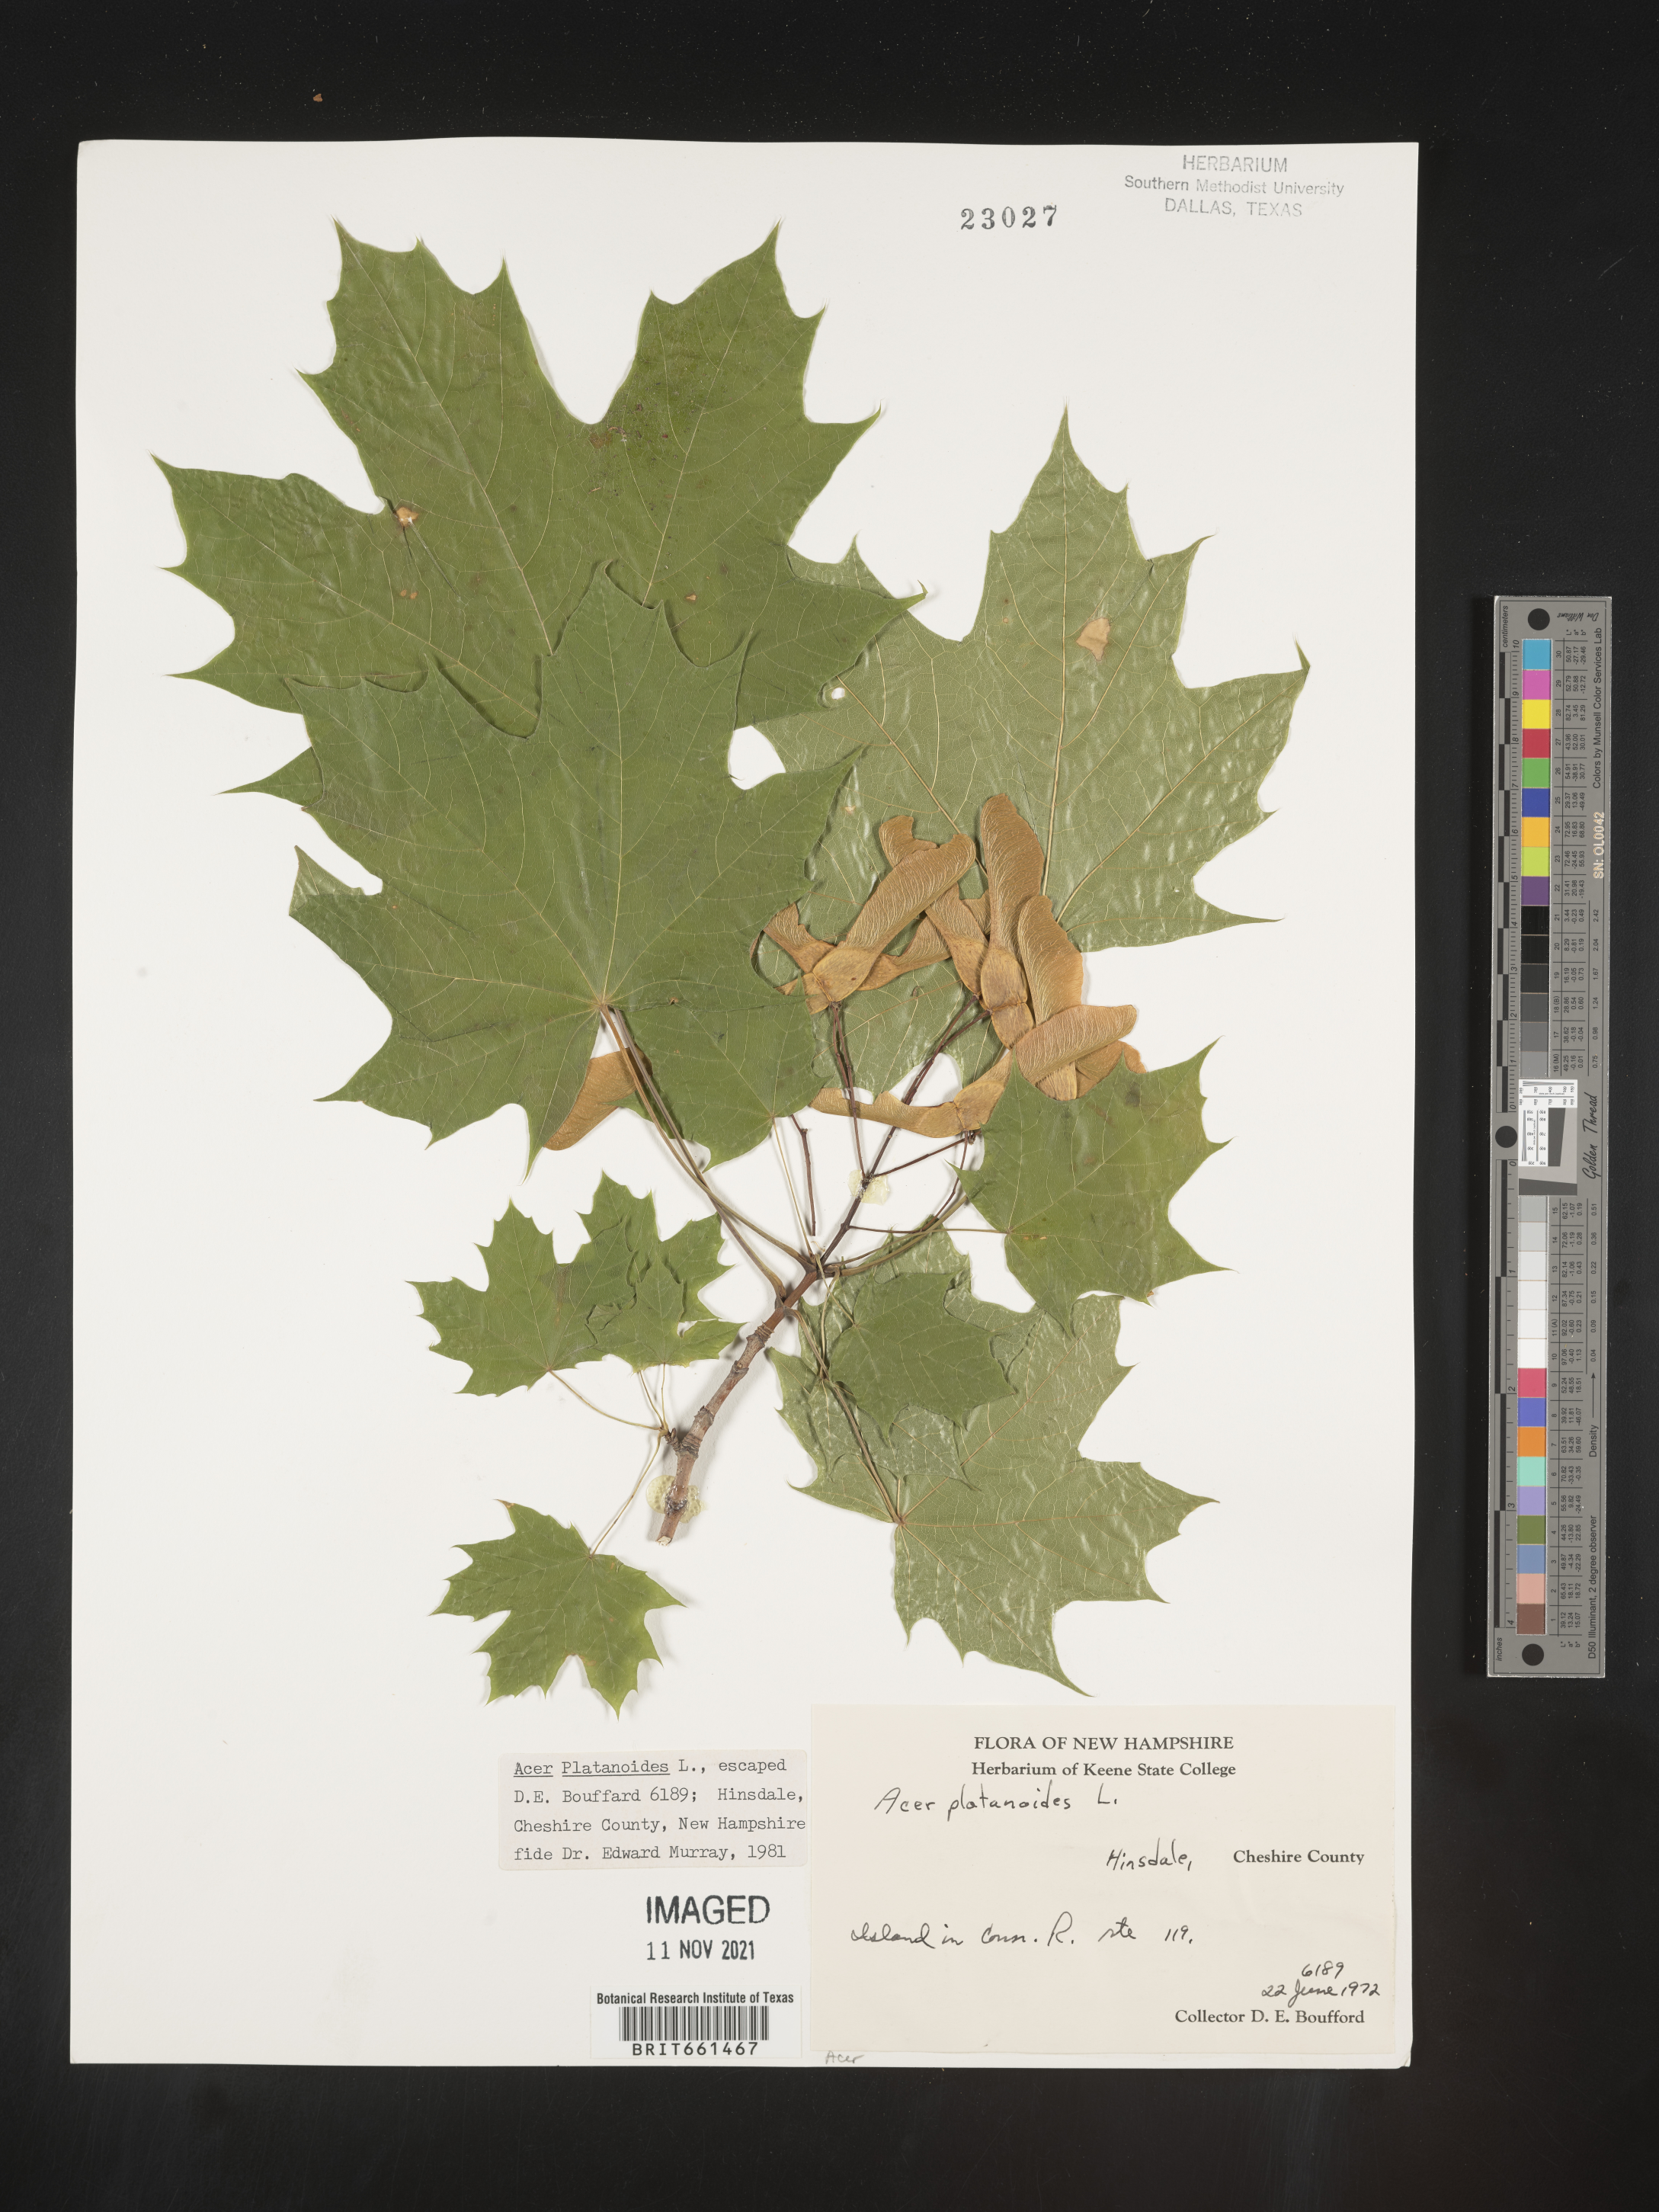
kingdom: Plantae
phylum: Tracheophyta
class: Magnoliopsida
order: Sapindales
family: Sapindaceae
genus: Acer
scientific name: Acer
